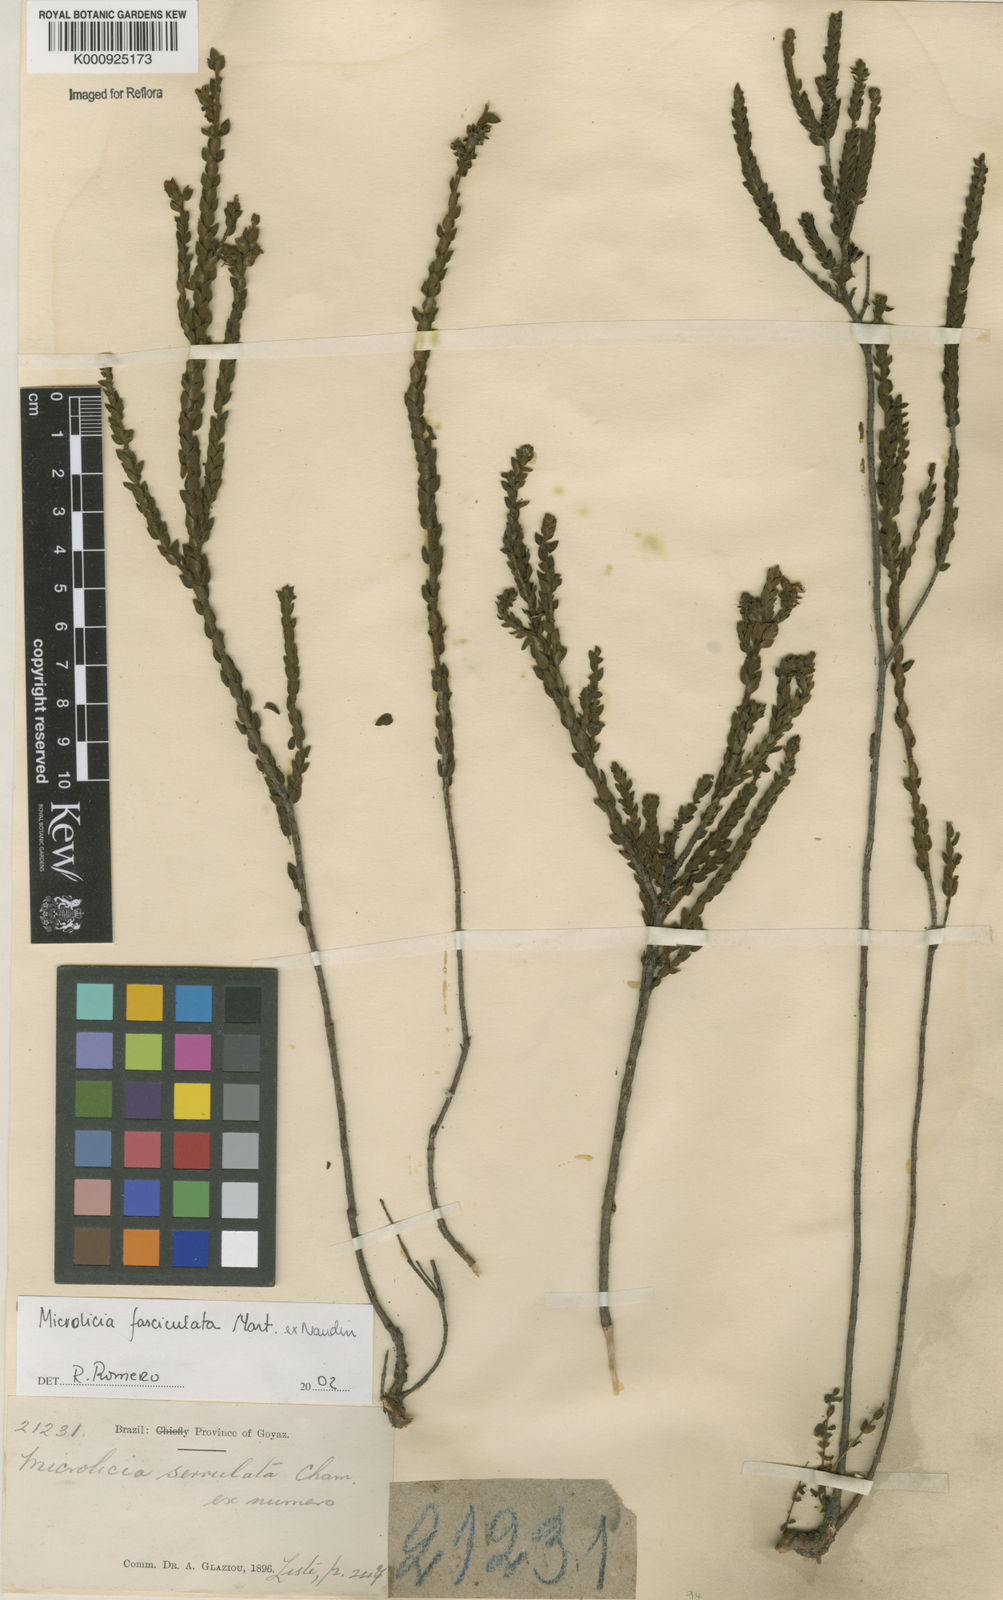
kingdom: Plantae
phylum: Tracheophyta
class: Magnoliopsida
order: Myrtales
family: Melastomataceae
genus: Microlicia
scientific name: Microlicia fasciculata
